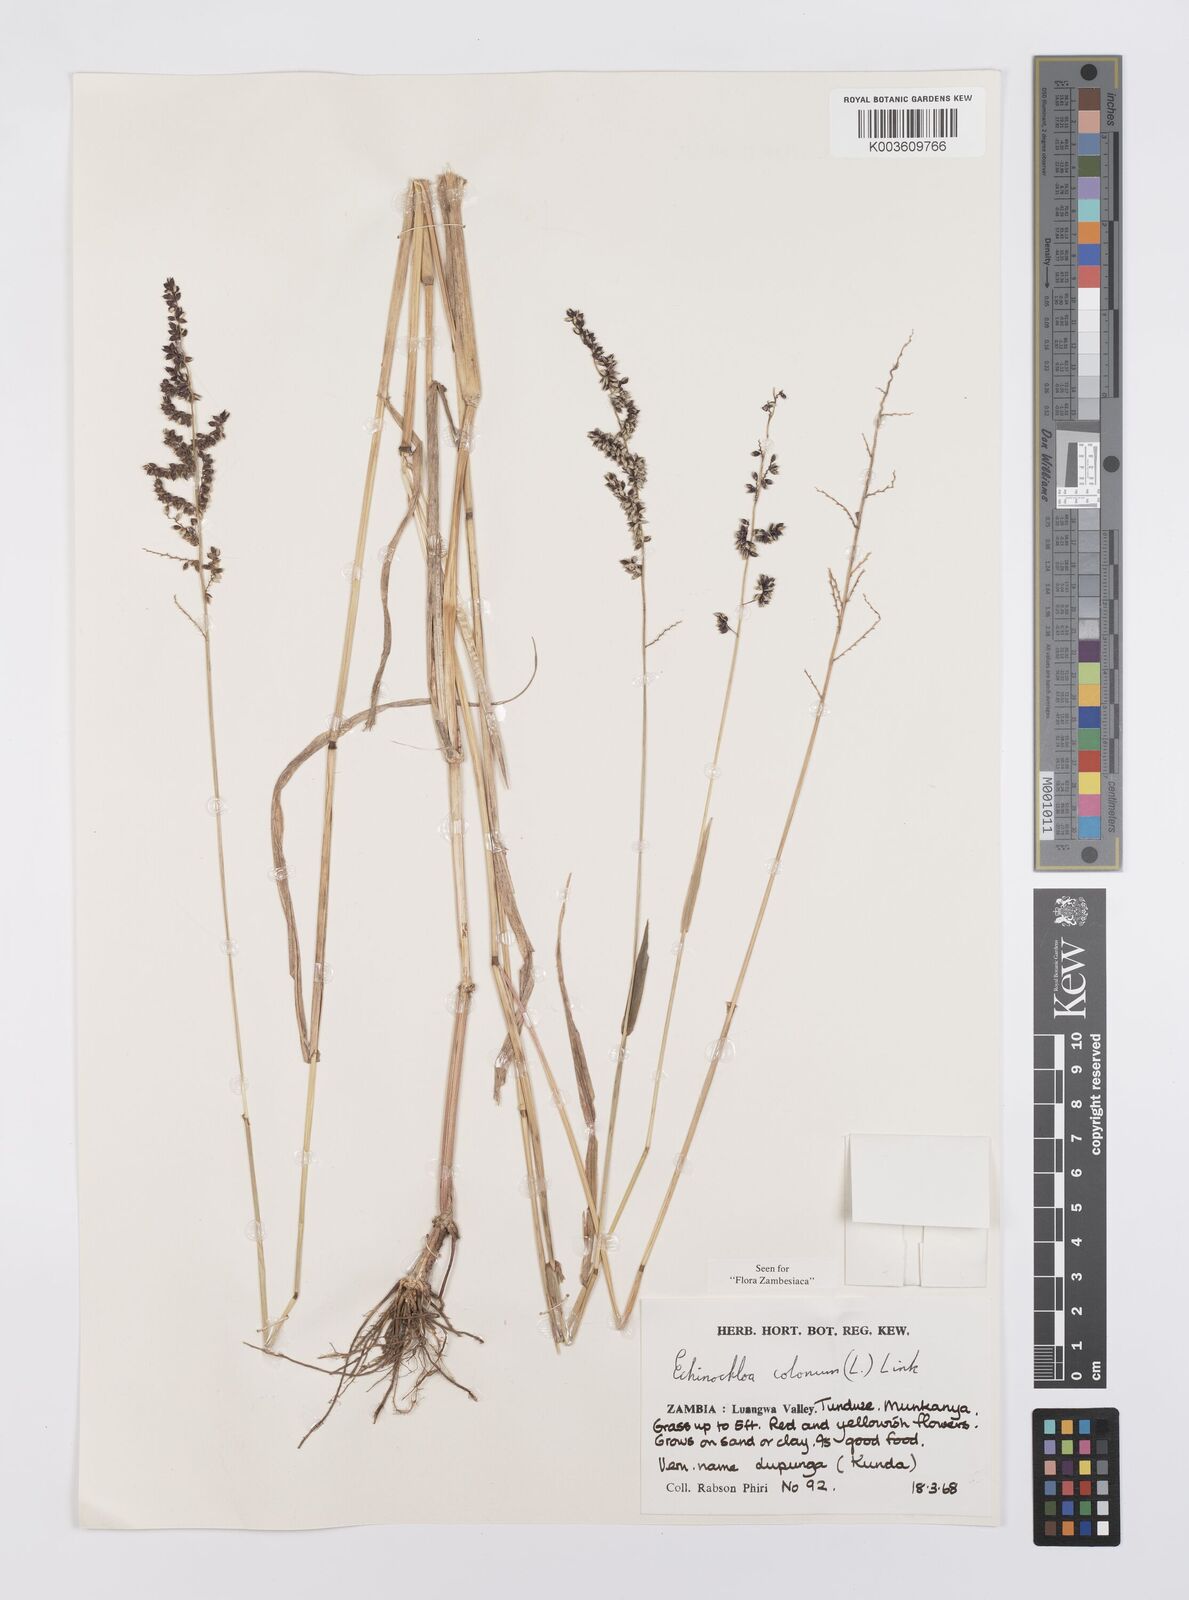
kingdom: Plantae
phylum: Tracheophyta
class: Liliopsida
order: Poales
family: Poaceae
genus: Echinochloa
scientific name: Echinochloa colonum
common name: Jungle rice
